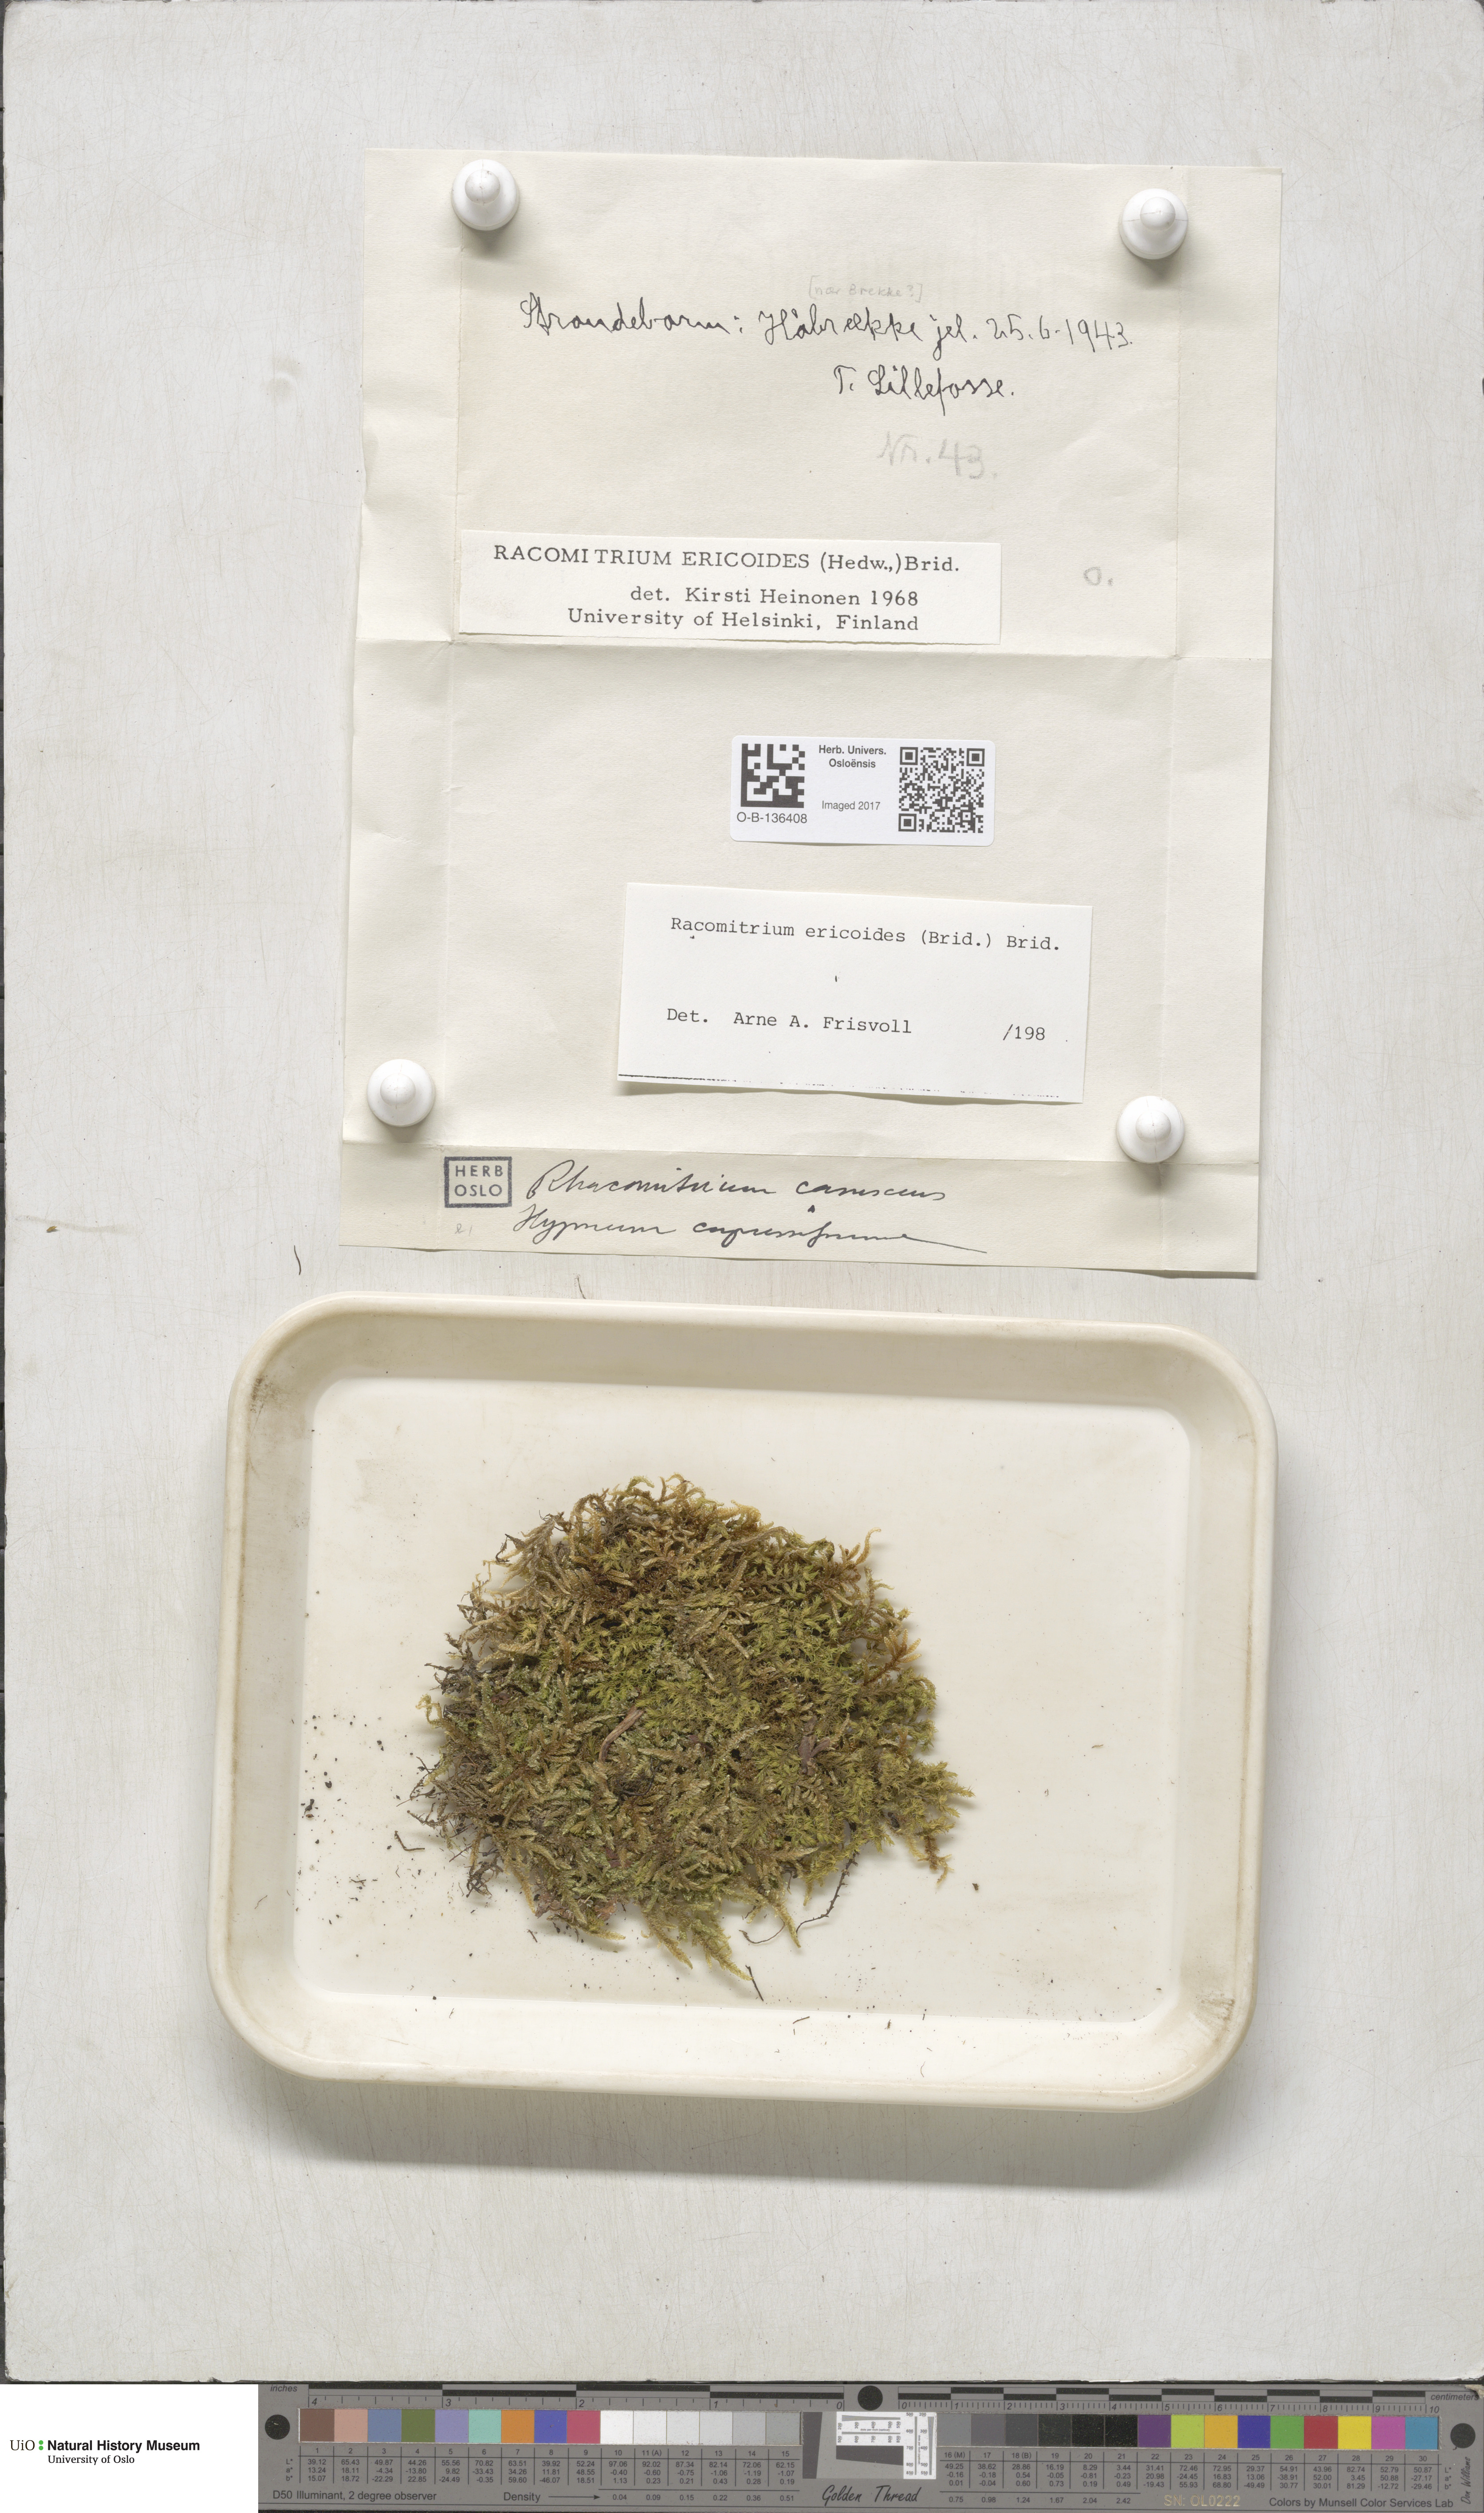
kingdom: Plantae
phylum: Bryophyta
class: Bryopsida
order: Grimmiales
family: Grimmiaceae
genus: Niphotrichum
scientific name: Niphotrichum ericoides
